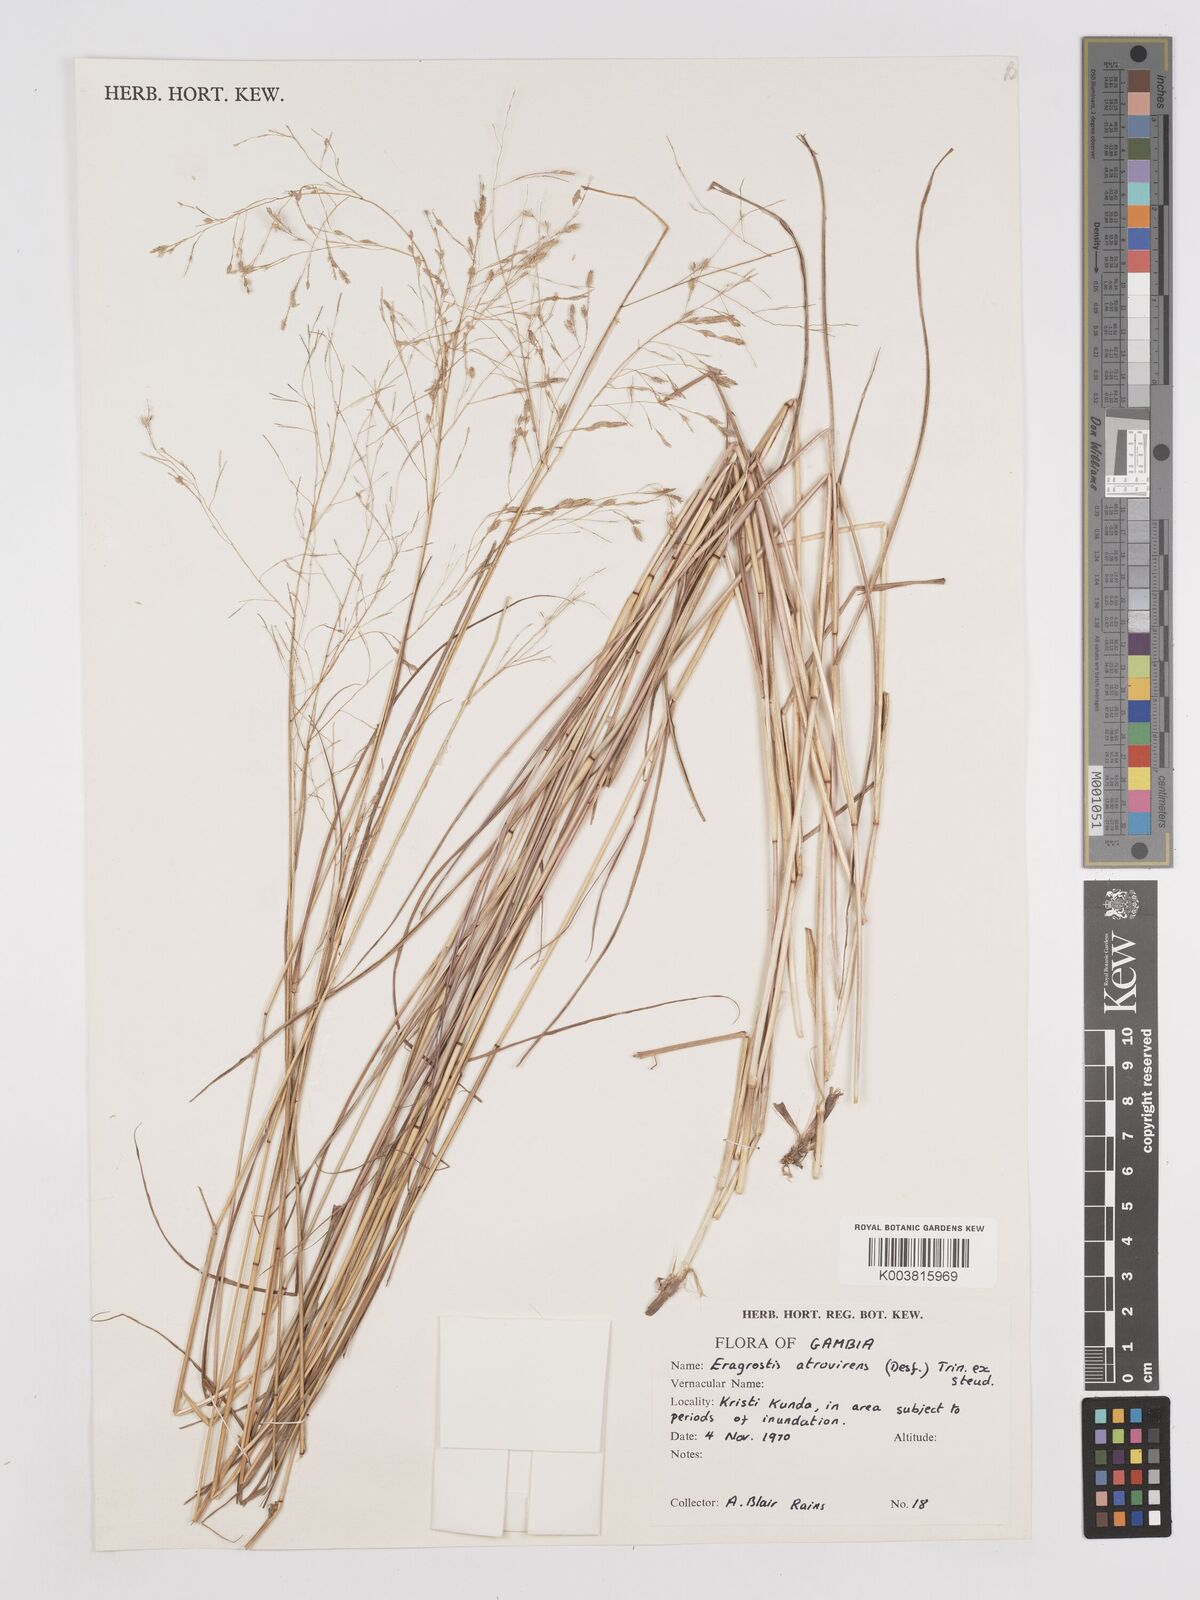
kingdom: Plantae
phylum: Tracheophyta
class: Liliopsida
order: Poales
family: Poaceae
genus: Eragrostis
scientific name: Eragrostis atrovirens
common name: Thalia lovegrass
